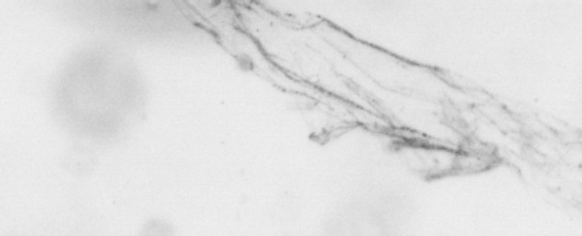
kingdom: Animalia
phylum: Chordata
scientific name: Chordata
